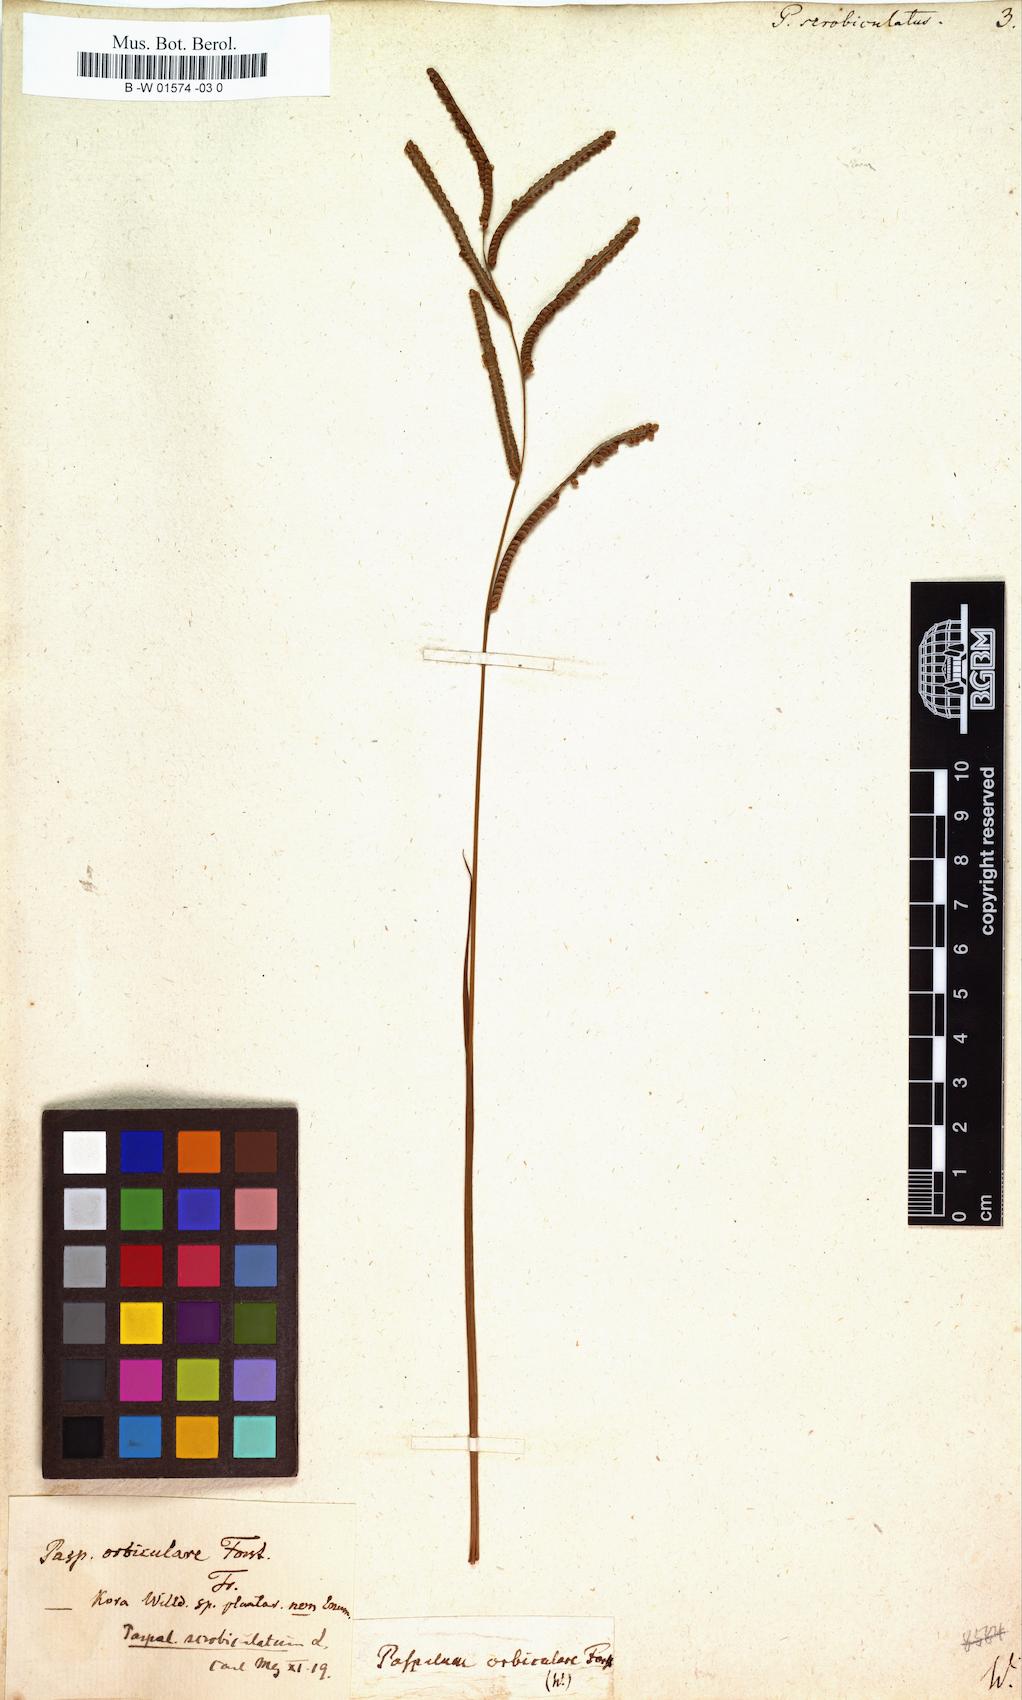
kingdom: Plantae
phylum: Tracheophyta
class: Liliopsida
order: Poales
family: Poaceae
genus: Paspalus
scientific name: Paspalus
